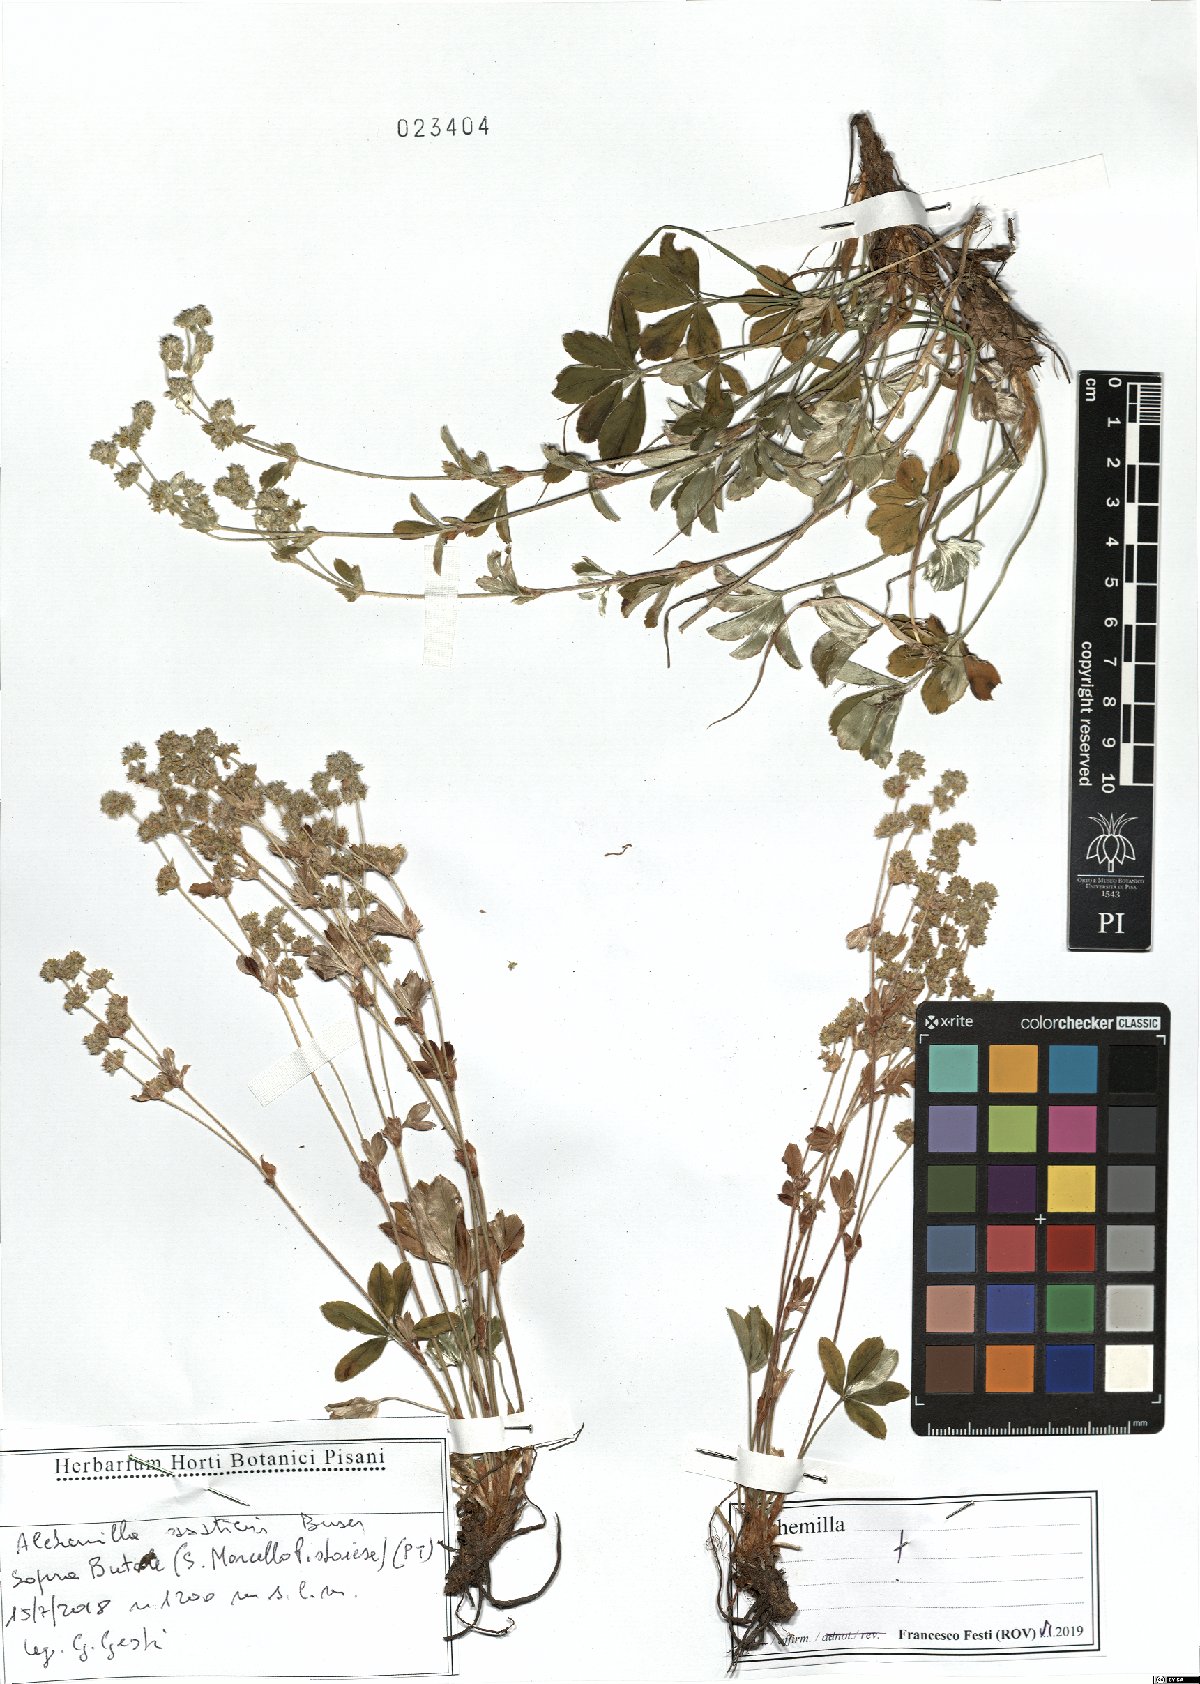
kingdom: Plantae
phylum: Tracheophyta
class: Magnoliopsida
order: Rosales
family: Rosaceae
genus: Alchemilla
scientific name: Alchemilla saxatilis
